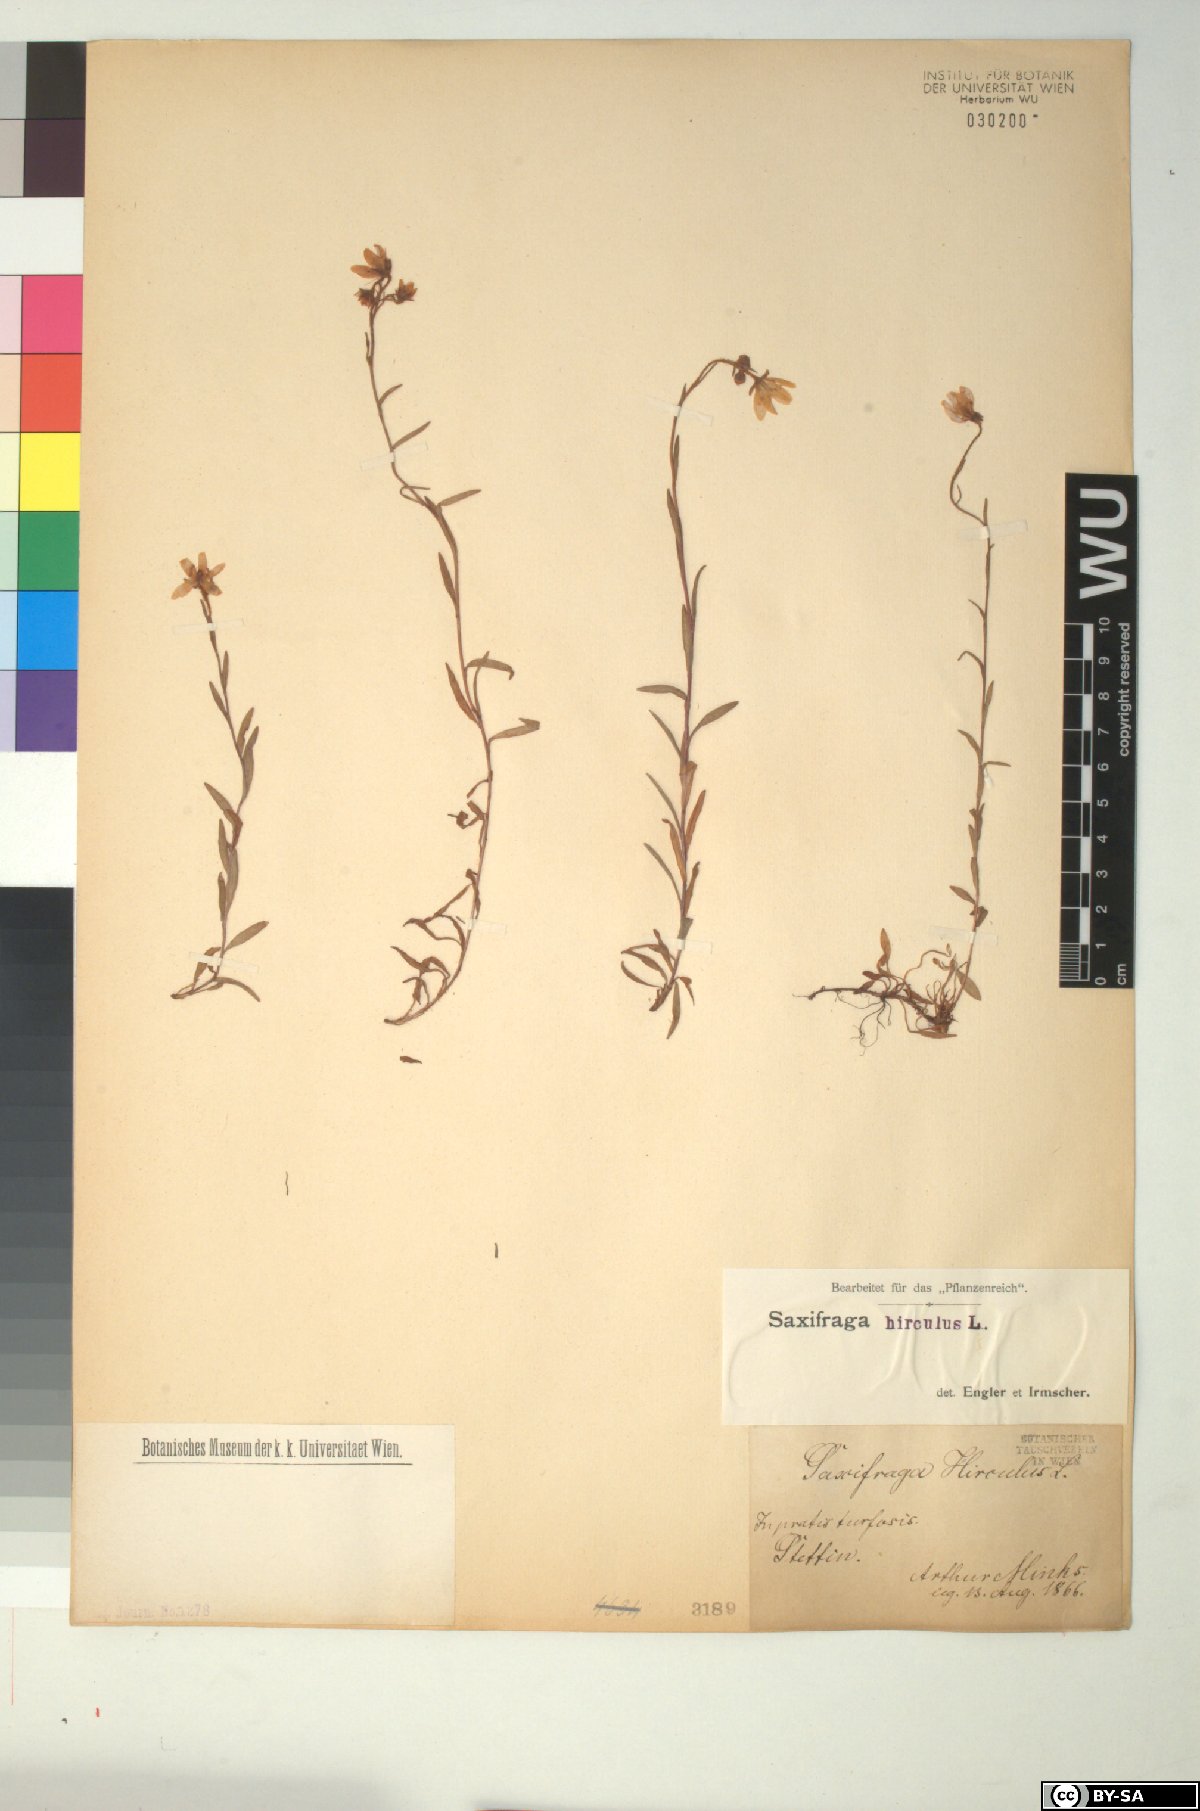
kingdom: Plantae
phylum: Tracheophyta
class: Magnoliopsida
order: Saxifragales
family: Saxifragaceae
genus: Saxifraga
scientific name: Saxifraga hirculus
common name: Yellow marsh saxifrage
